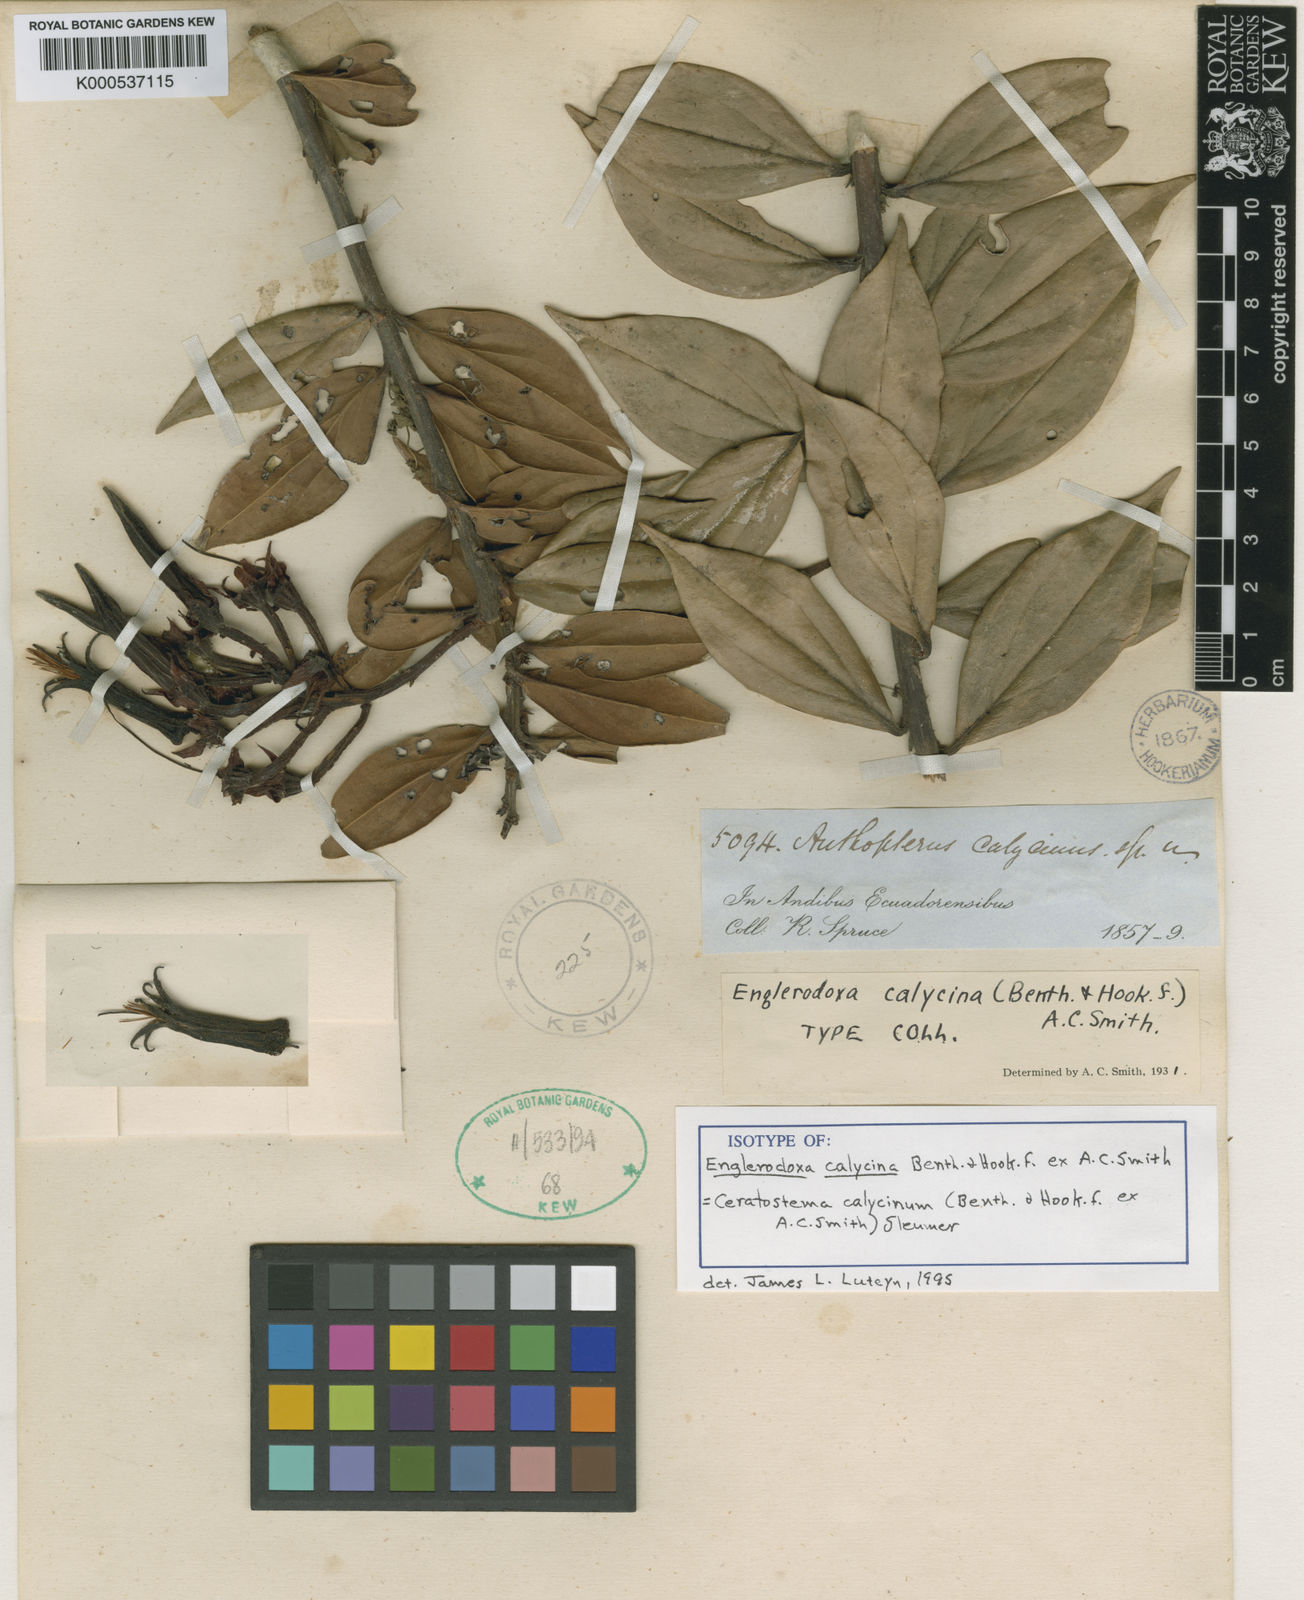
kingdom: Plantae
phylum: Tracheophyta
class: Magnoliopsida
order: Ericales
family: Ericaceae
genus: Ceratostema
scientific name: Ceratostema calycinum
